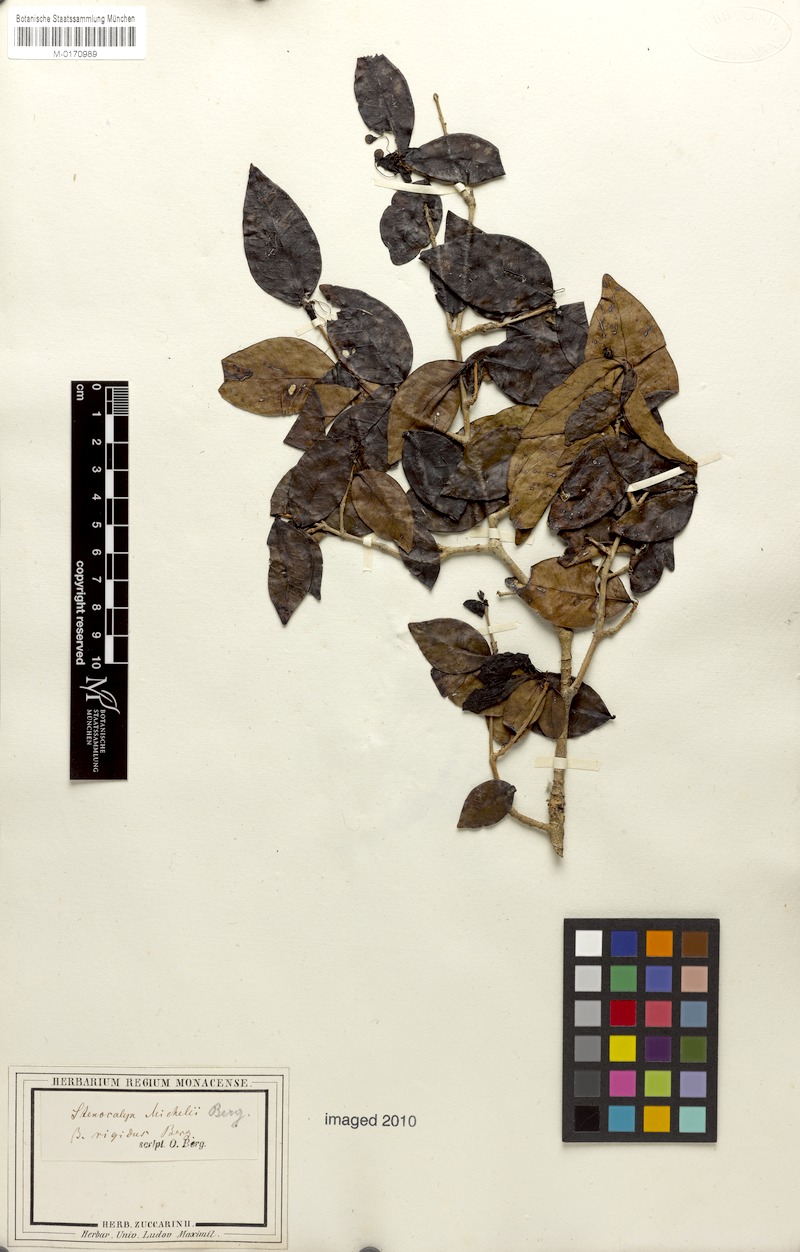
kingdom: Plantae
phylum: Tracheophyta
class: Magnoliopsida
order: Myrtales
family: Myrtaceae
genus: Eugenia
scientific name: Eugenia uniflora
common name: Surinam cherry
